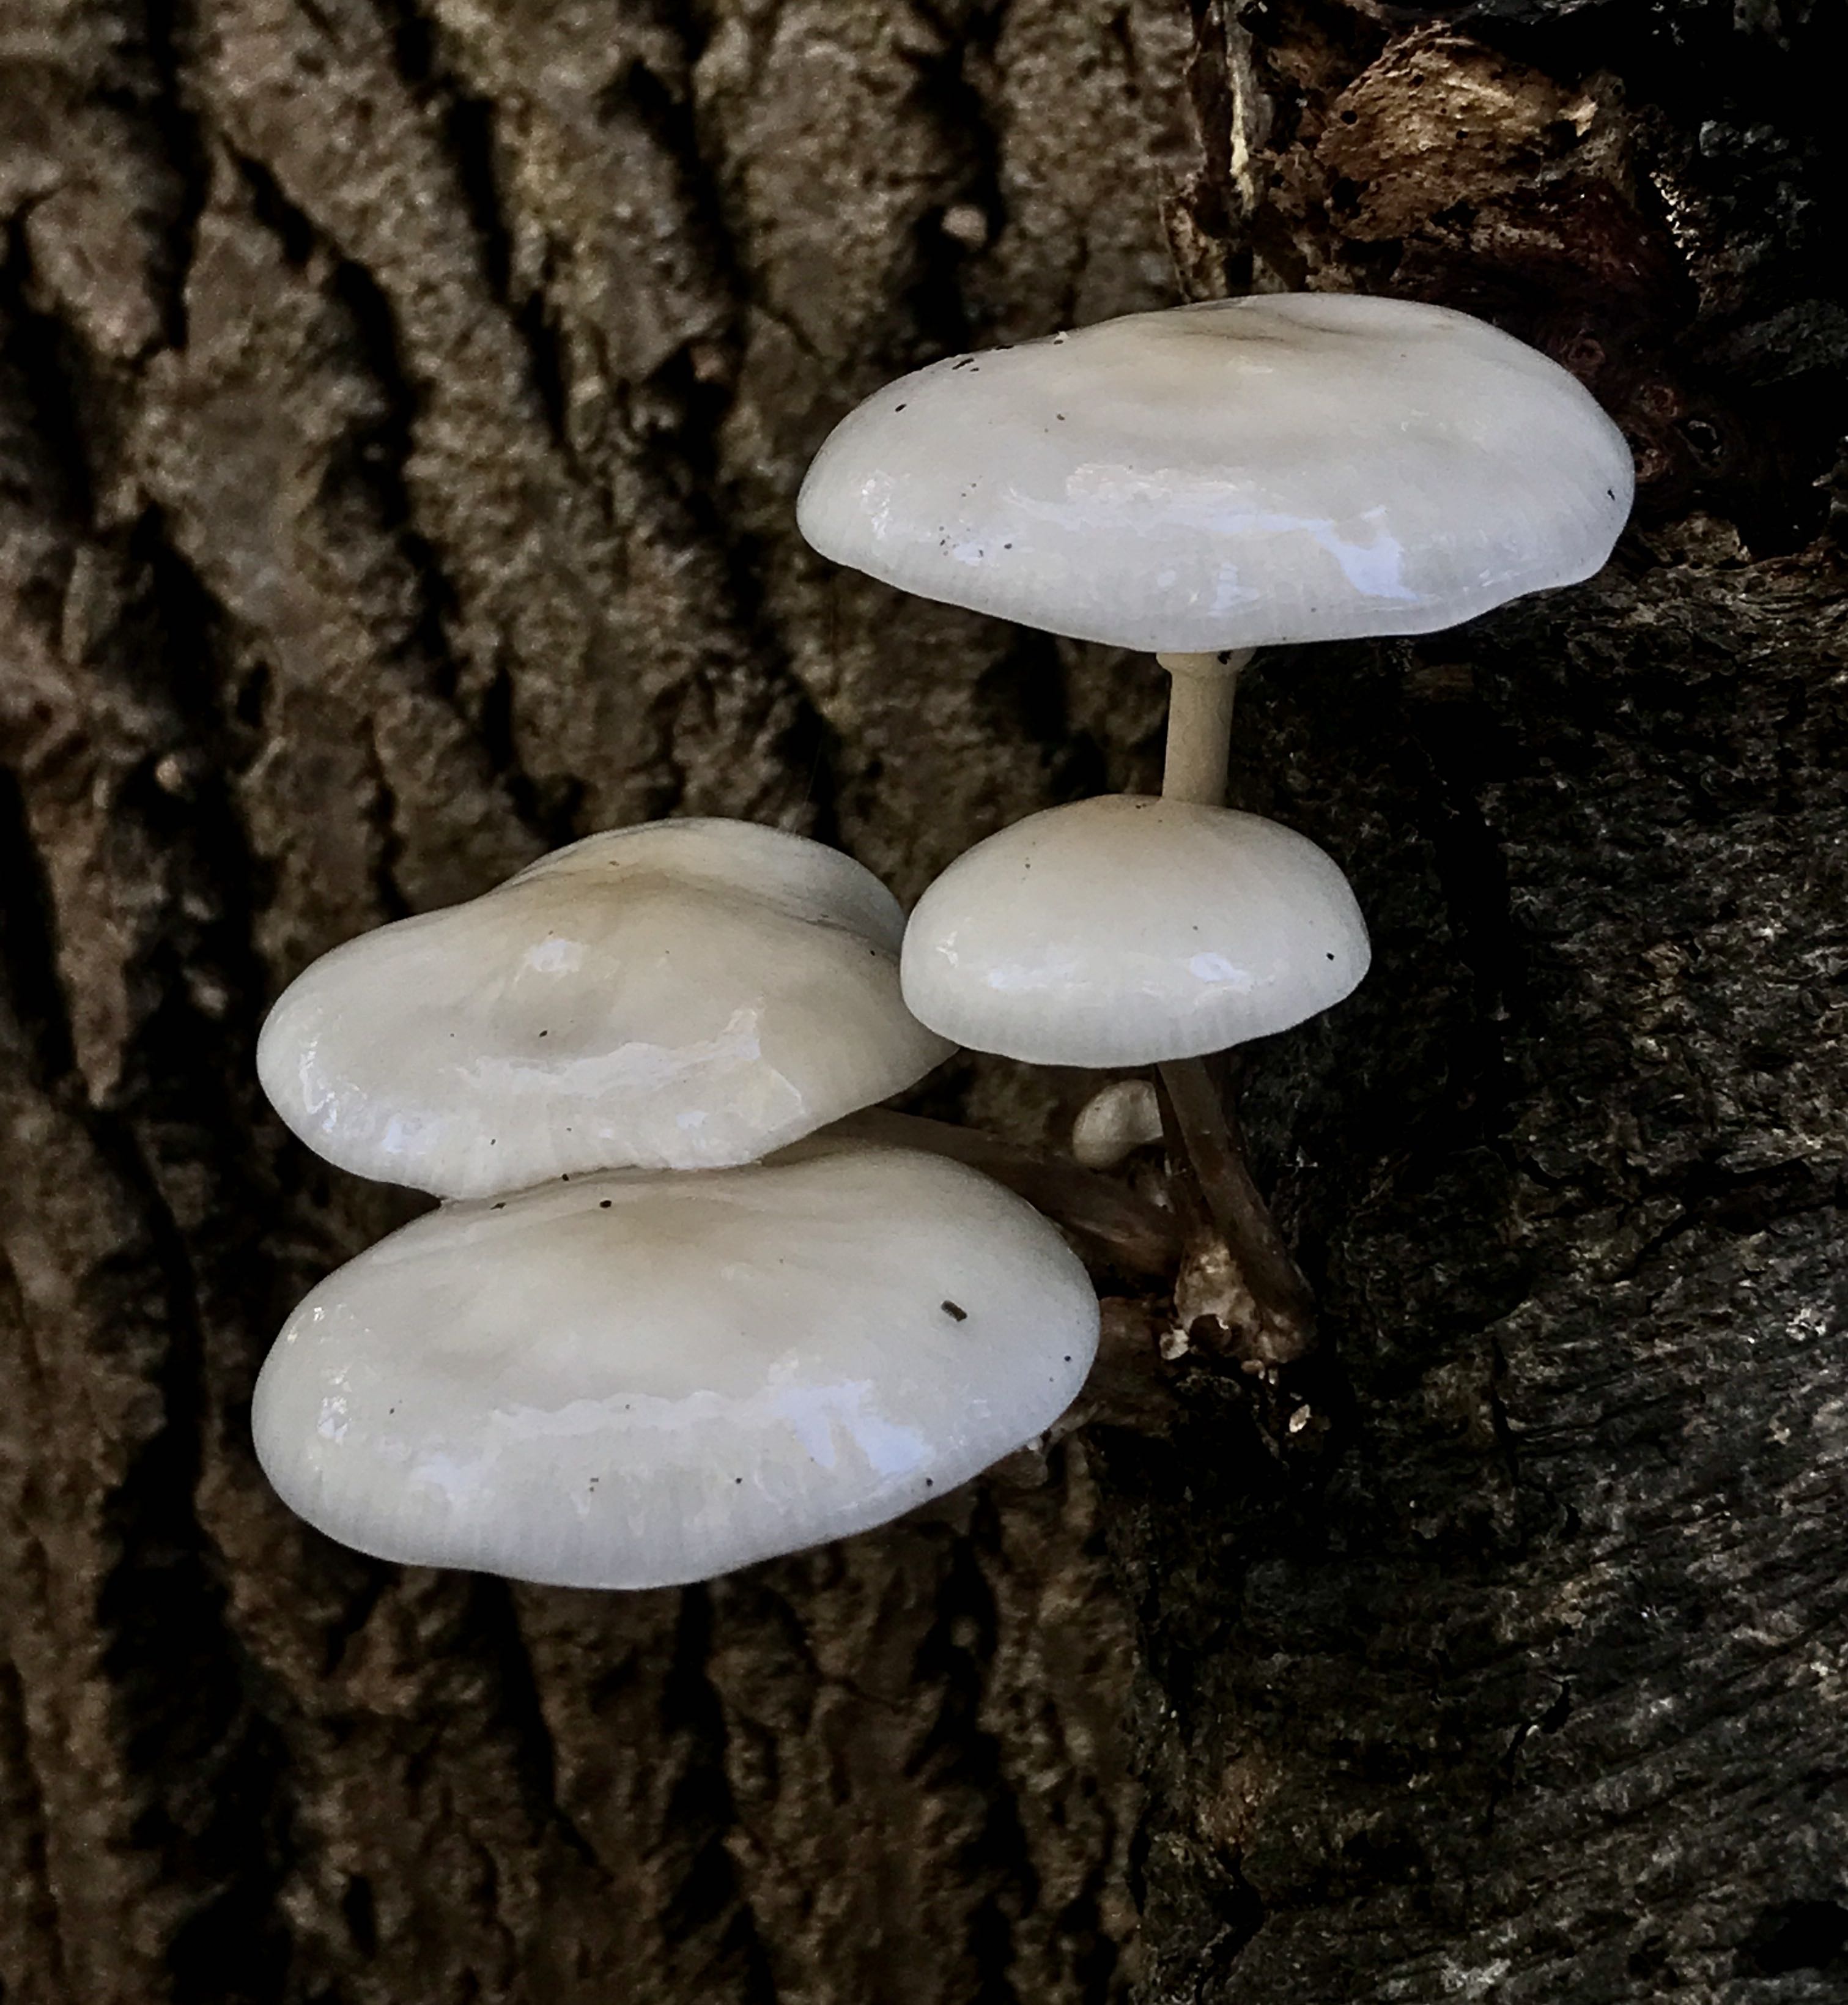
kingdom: Fungi
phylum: Basidiomycota
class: Agaricomycetes
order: Agaricales
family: Physalacriaceae
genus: Mucidula
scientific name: Mucidula mucida
